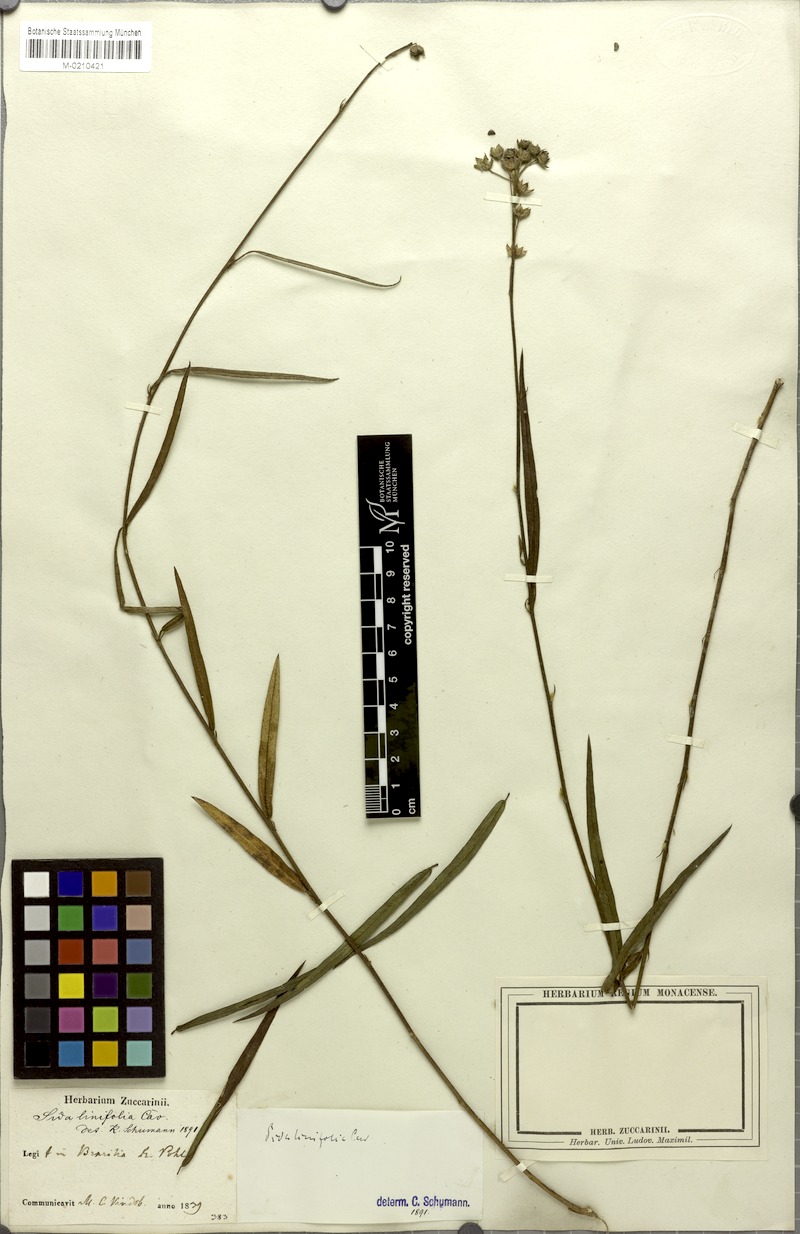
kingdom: Plantae
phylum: Tracheophyta
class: Magnoliopsida
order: Malvales
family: Malvaceae
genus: Sida
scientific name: Sida linifolia
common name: Flaxleaf fanpetals
